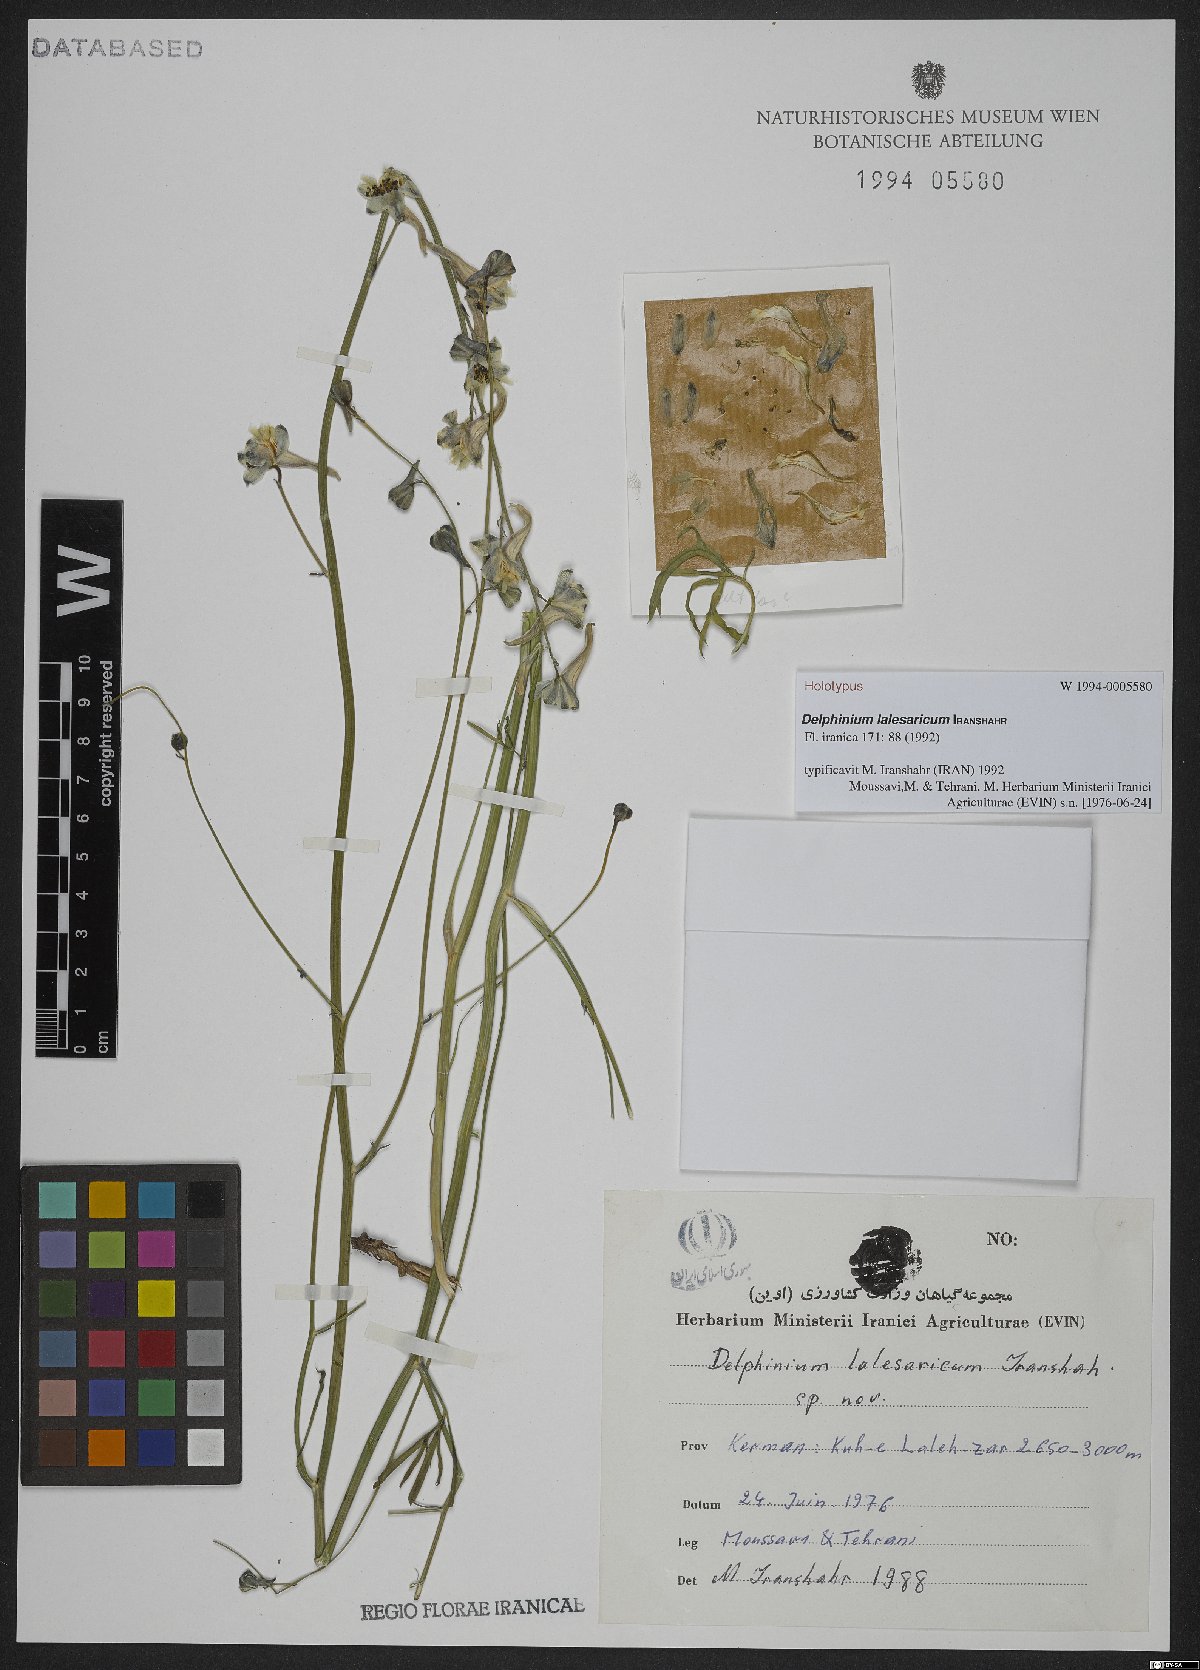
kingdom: Plantae
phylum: Tracheophyta
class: Magnoliopsida
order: Ranunculales
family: Ranunculaceae
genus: Delphinium
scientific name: Delphinium lalesaricum
